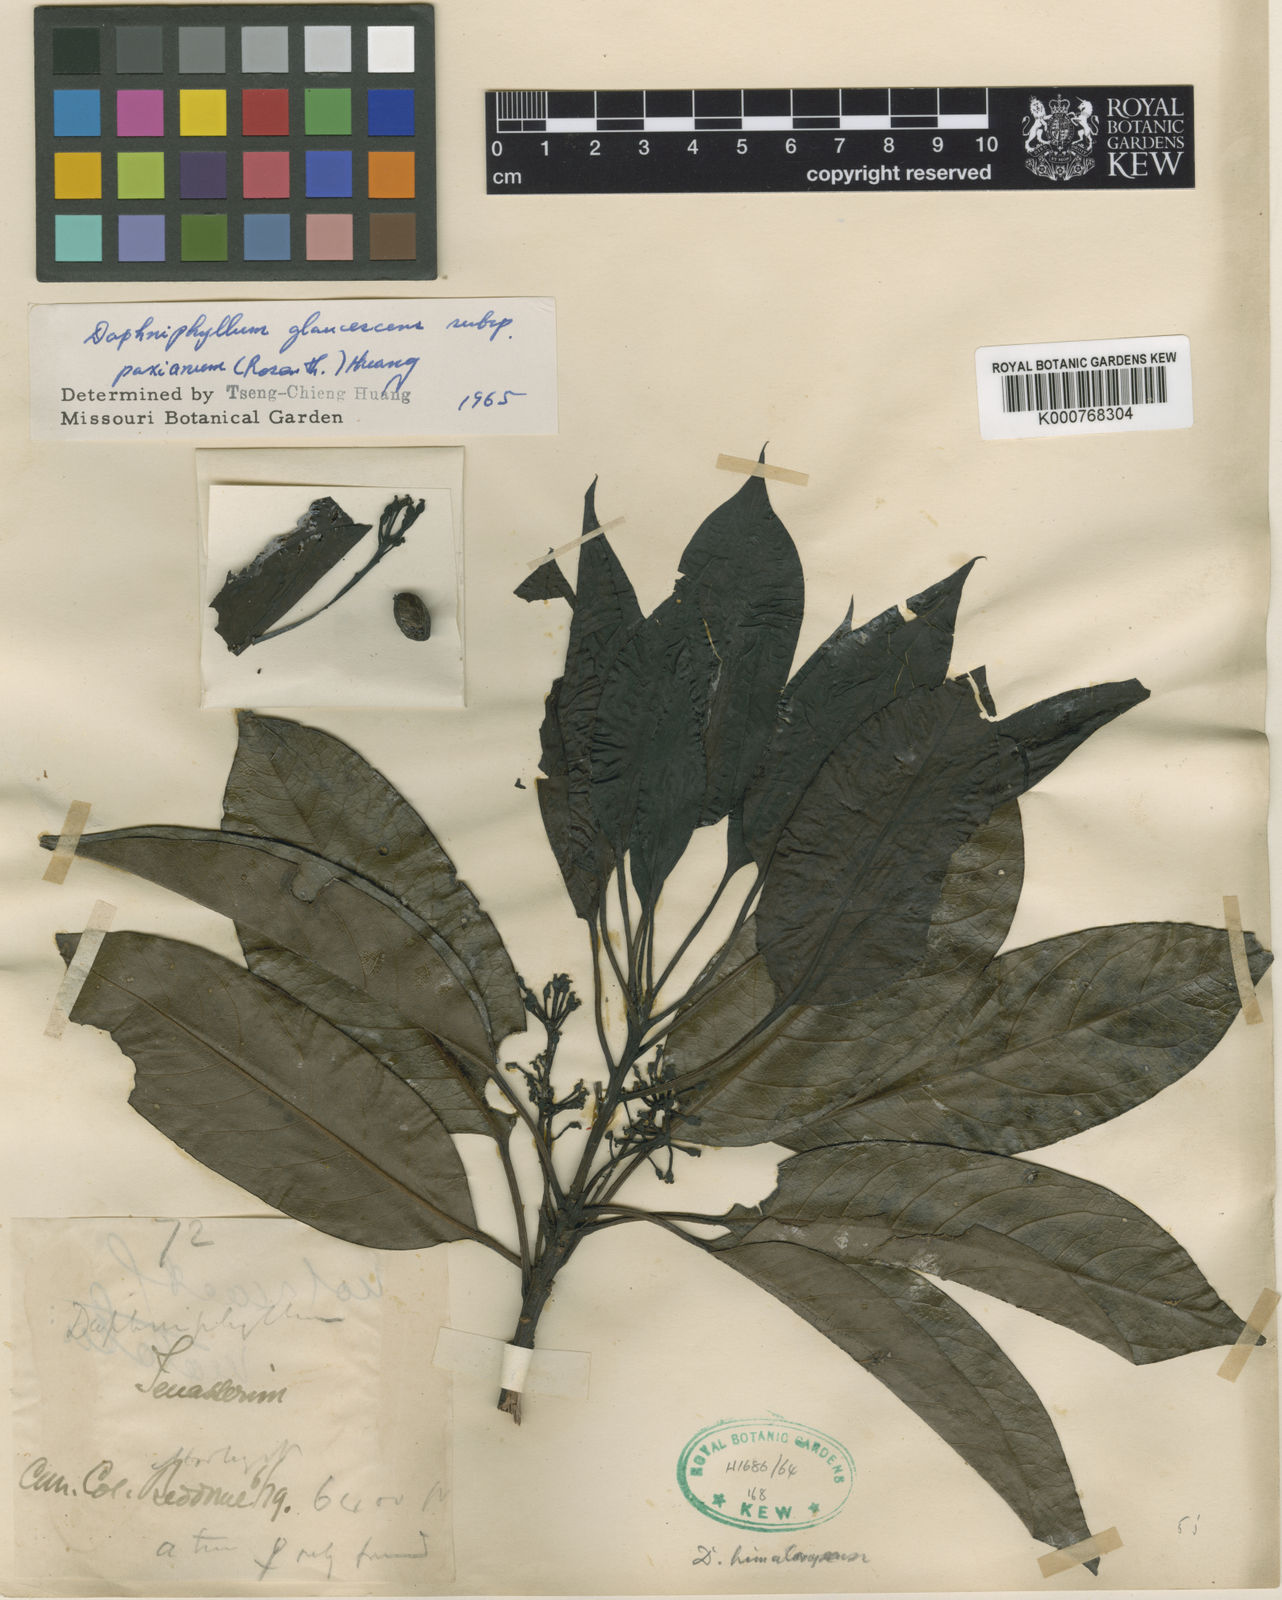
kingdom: Plantae
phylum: Tracheophyta
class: Magnoliopsida
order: Saxifragales
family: Daphniphyllaceae
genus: Daphniphyllum
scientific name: Daphniphyllum paxianum
